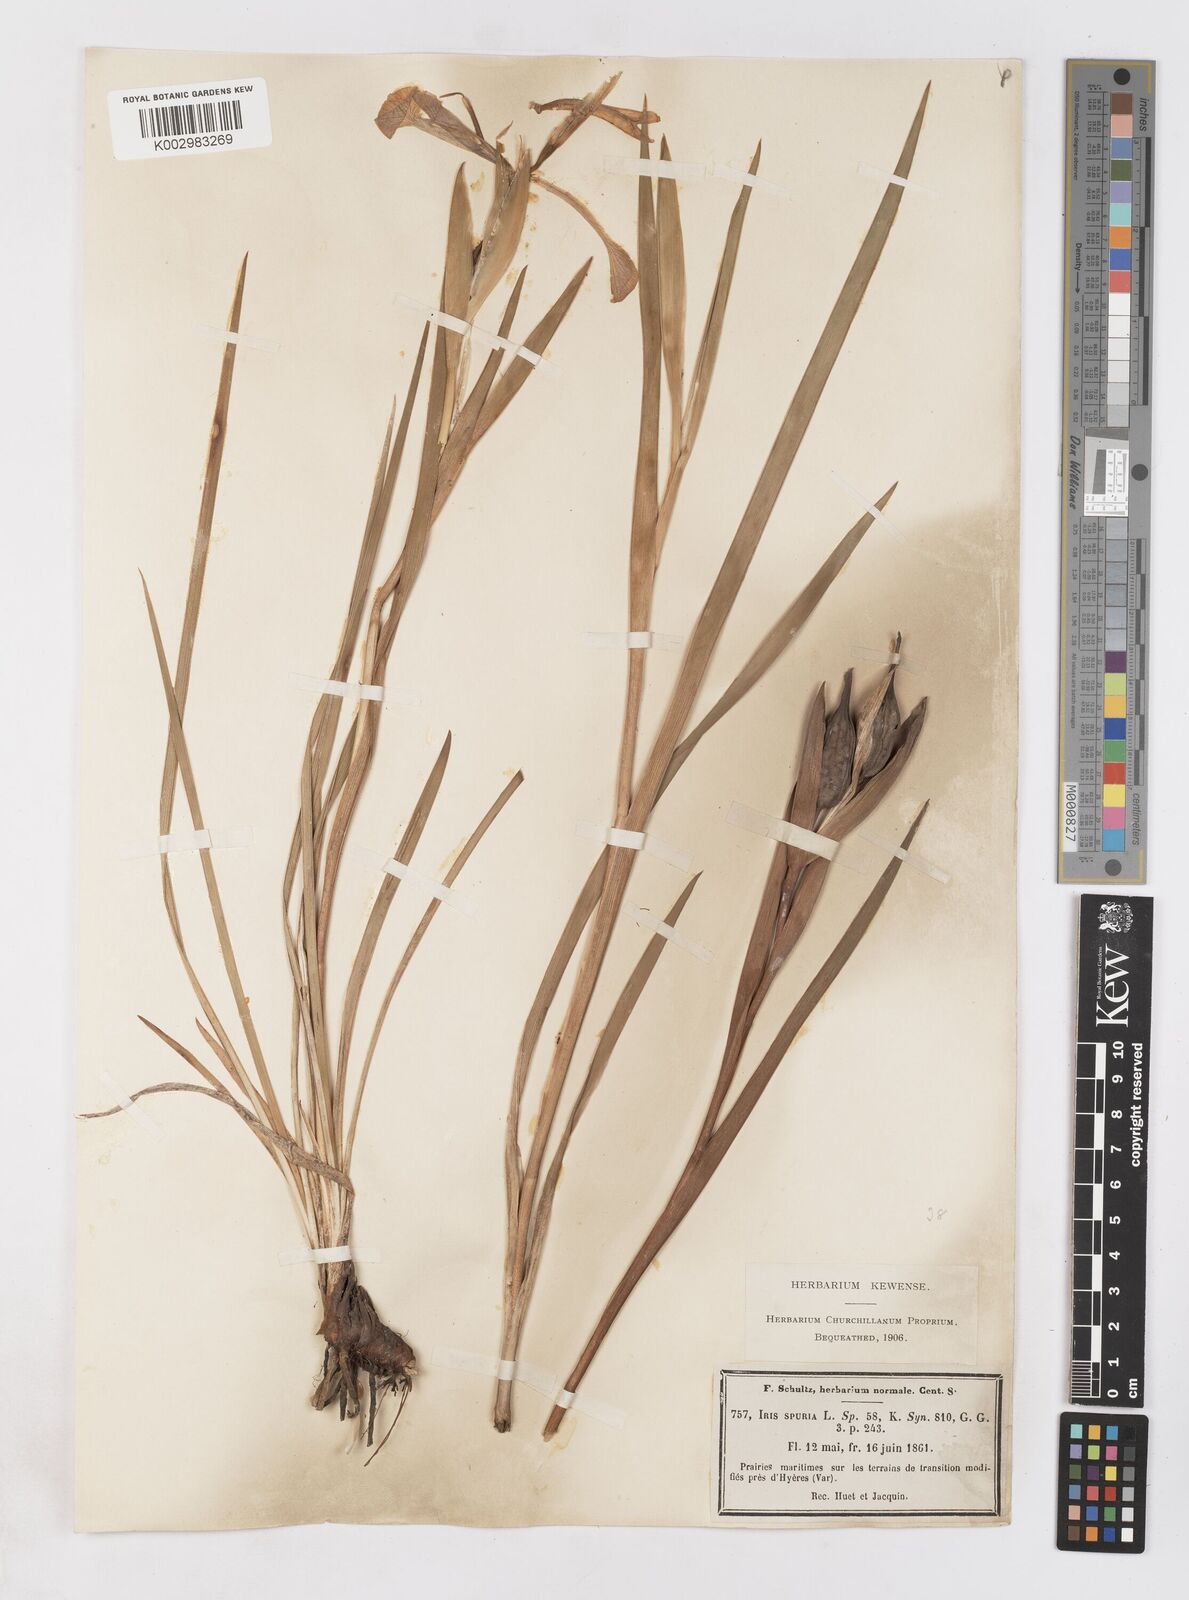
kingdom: Plantae
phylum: Tracheophyta
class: Liliopsida
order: Asparagales
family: Iridaceae
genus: Iris
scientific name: Iris spuria
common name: Blue iris
